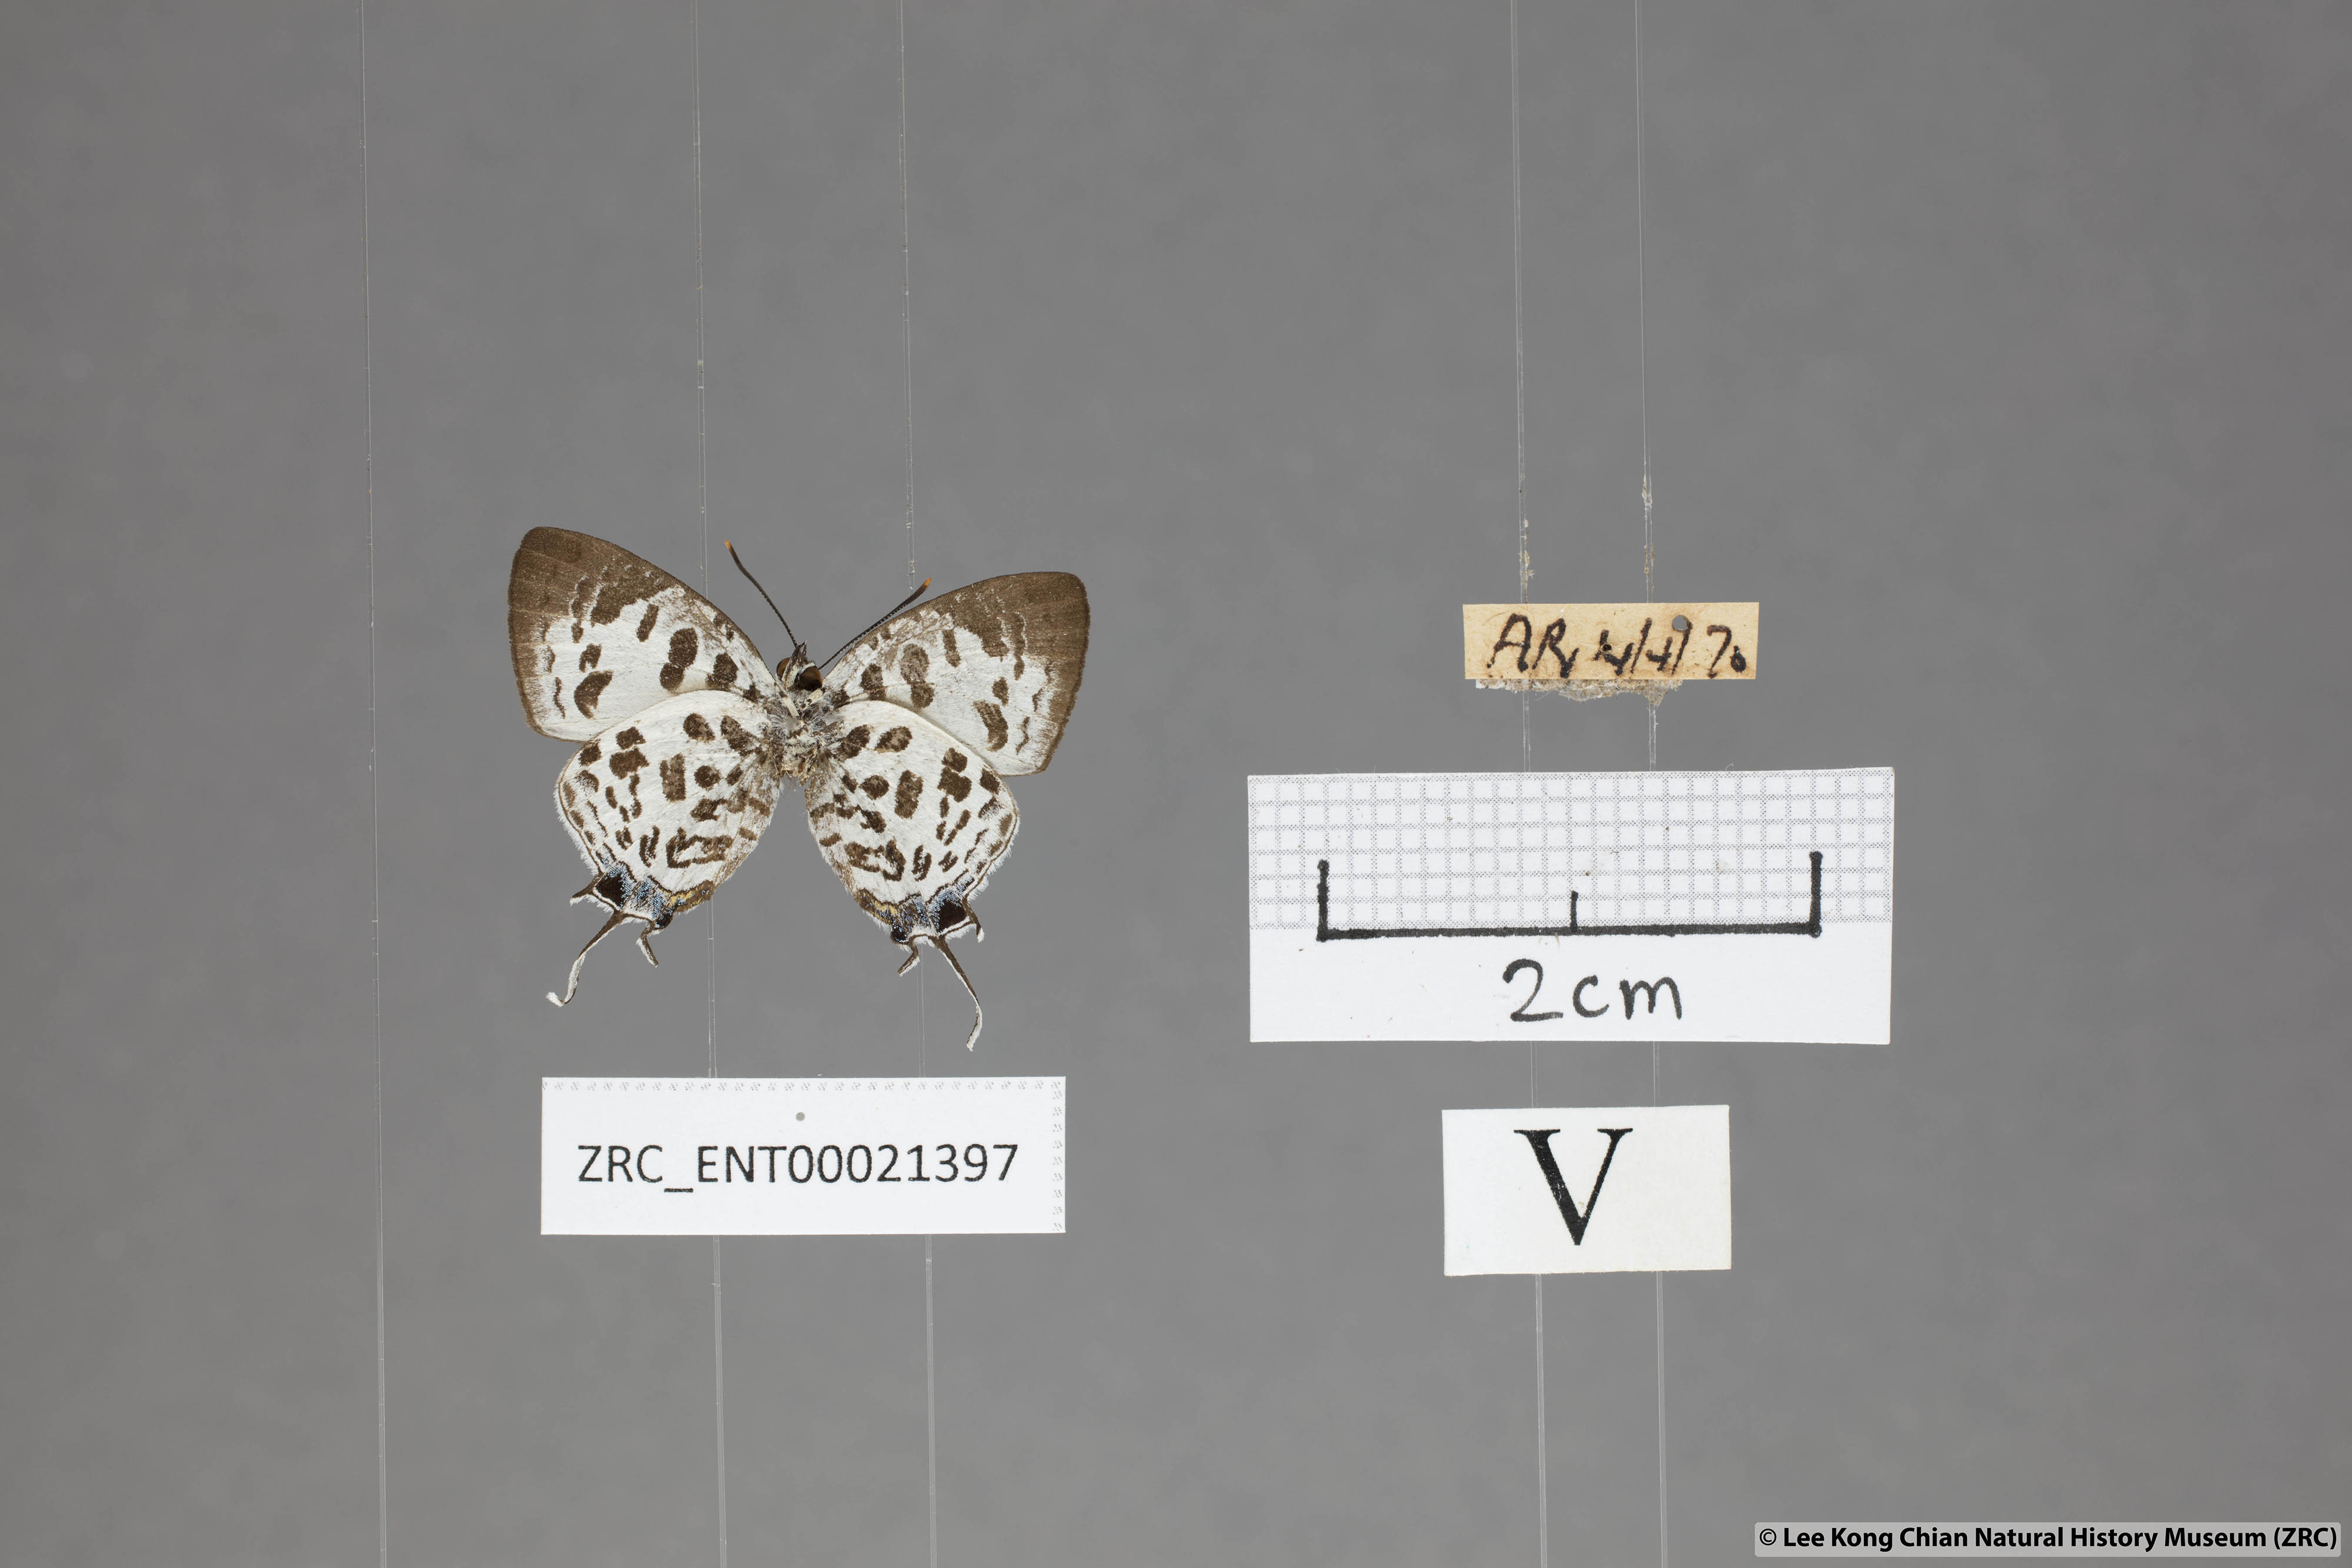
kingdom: Animalia
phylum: Arthropoda
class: Insecta
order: Lepidoptera
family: Lycaenidae
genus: Drupadia
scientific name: Drupadia scaeva
